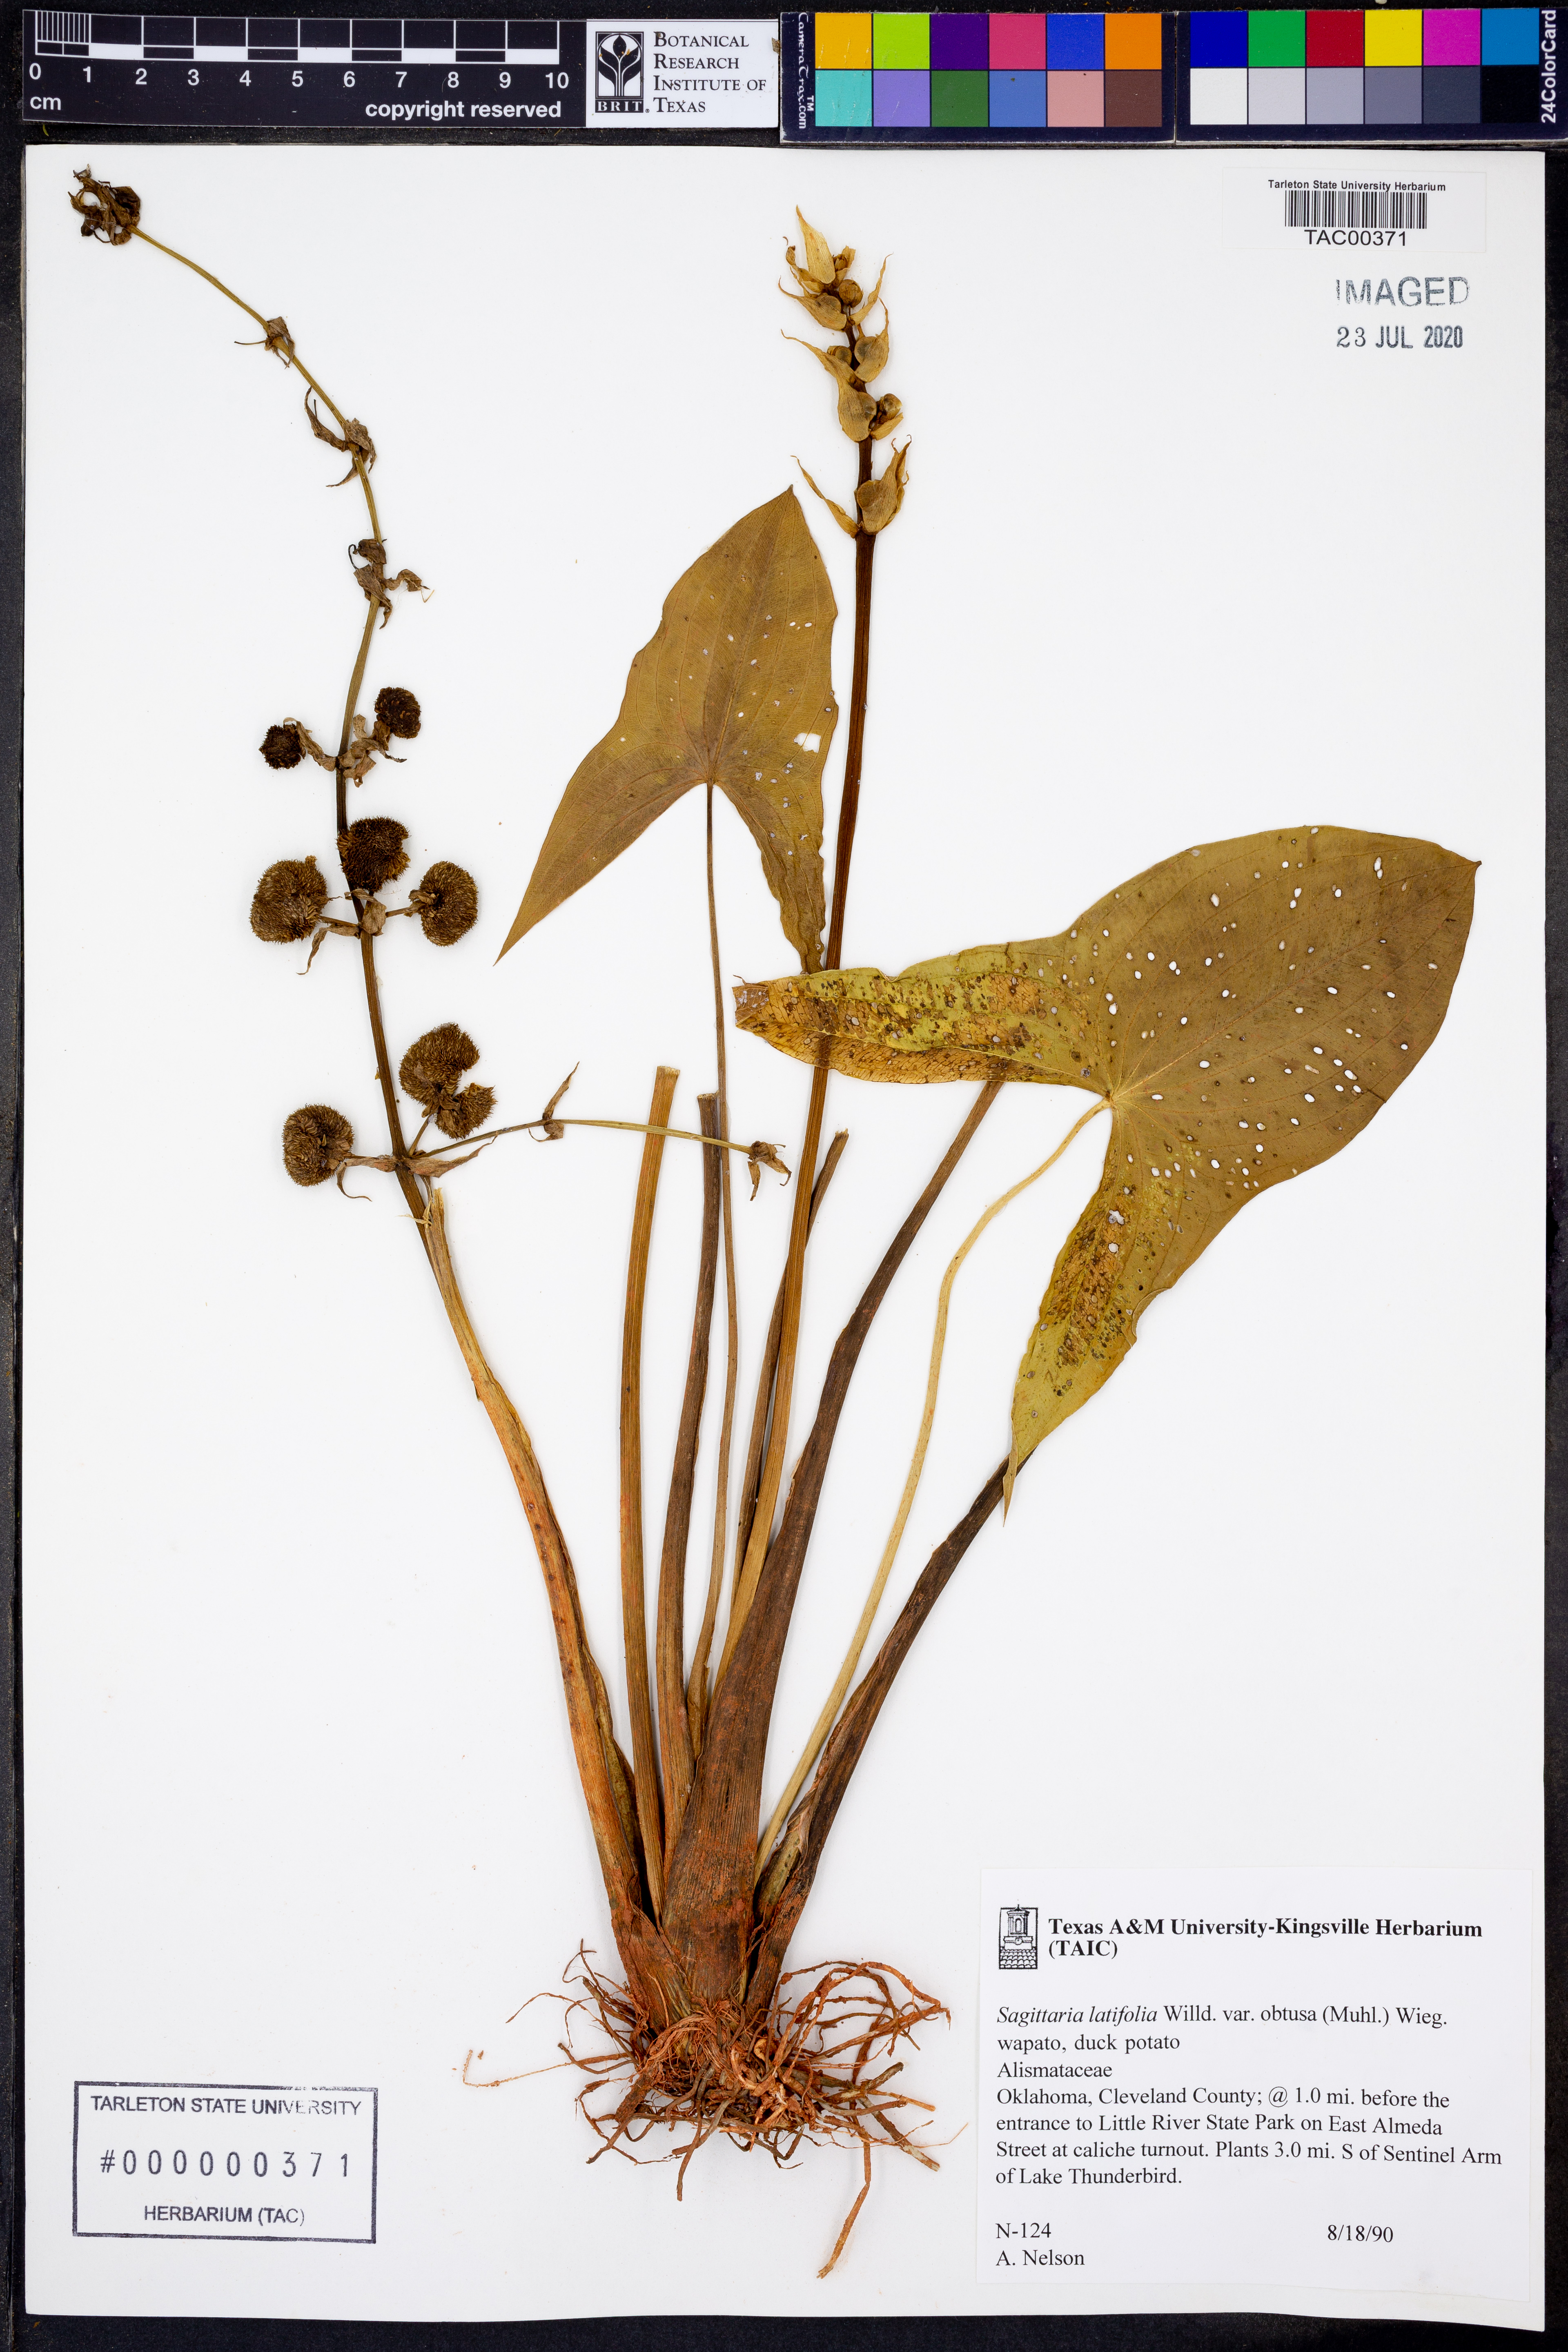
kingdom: Plantae
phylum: Tracheophyta
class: Liliopsida
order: Alismatales
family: Alismataceae
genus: Sagittaria
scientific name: Sagittaria latifolia
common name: Duck-potato
